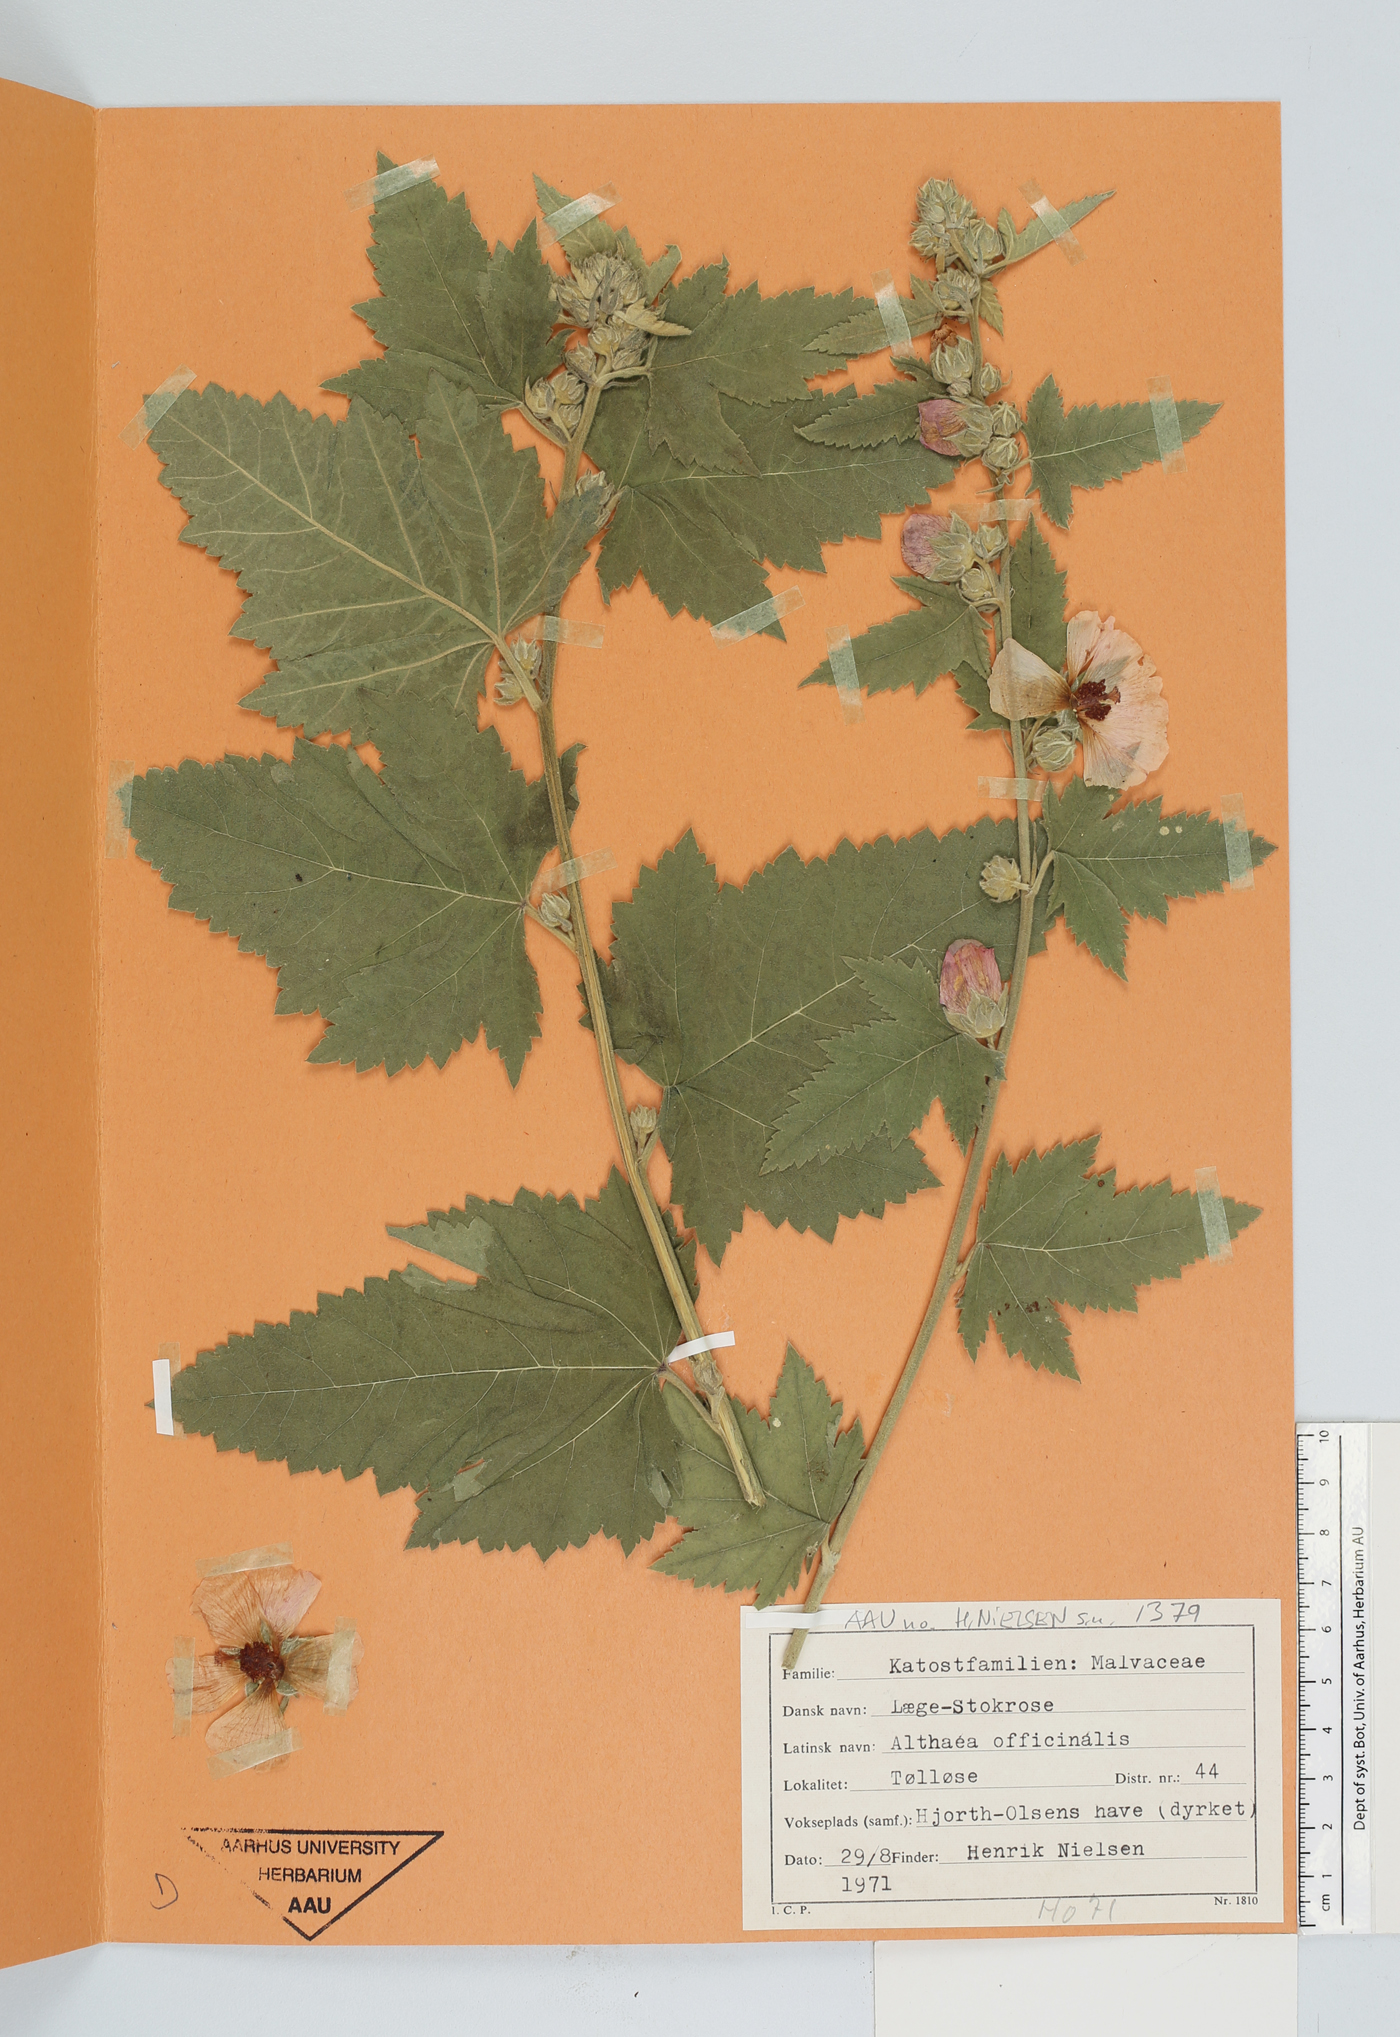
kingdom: Plantae
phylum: Tracheophyta
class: Magnoliopsida
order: Malvales
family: Malvaceae
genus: Althaea
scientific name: Althaea officinalis
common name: Marsh-mallow
